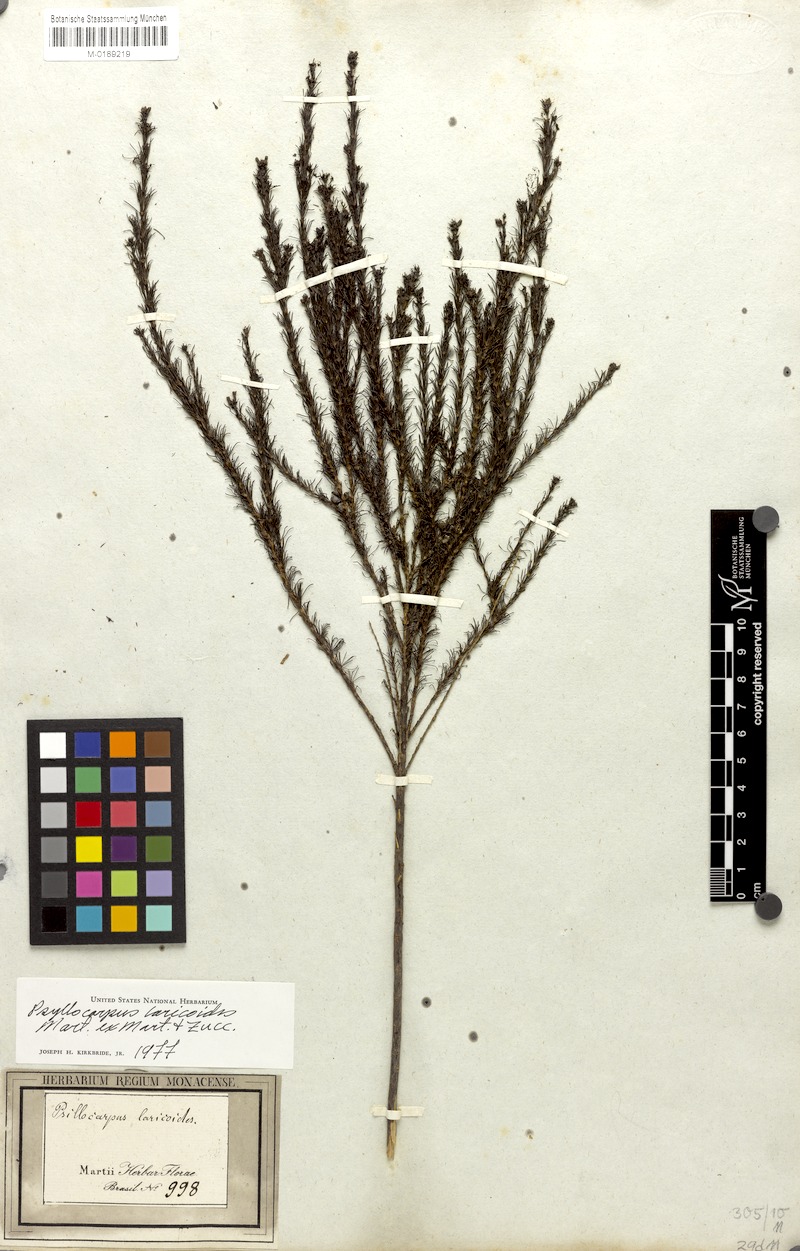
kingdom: Plantae
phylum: Tracheophyta
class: Magnoliopsida
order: Gentianales
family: Rubiaceae
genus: Psyllocarpus
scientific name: Psyllocarpus laricoides
